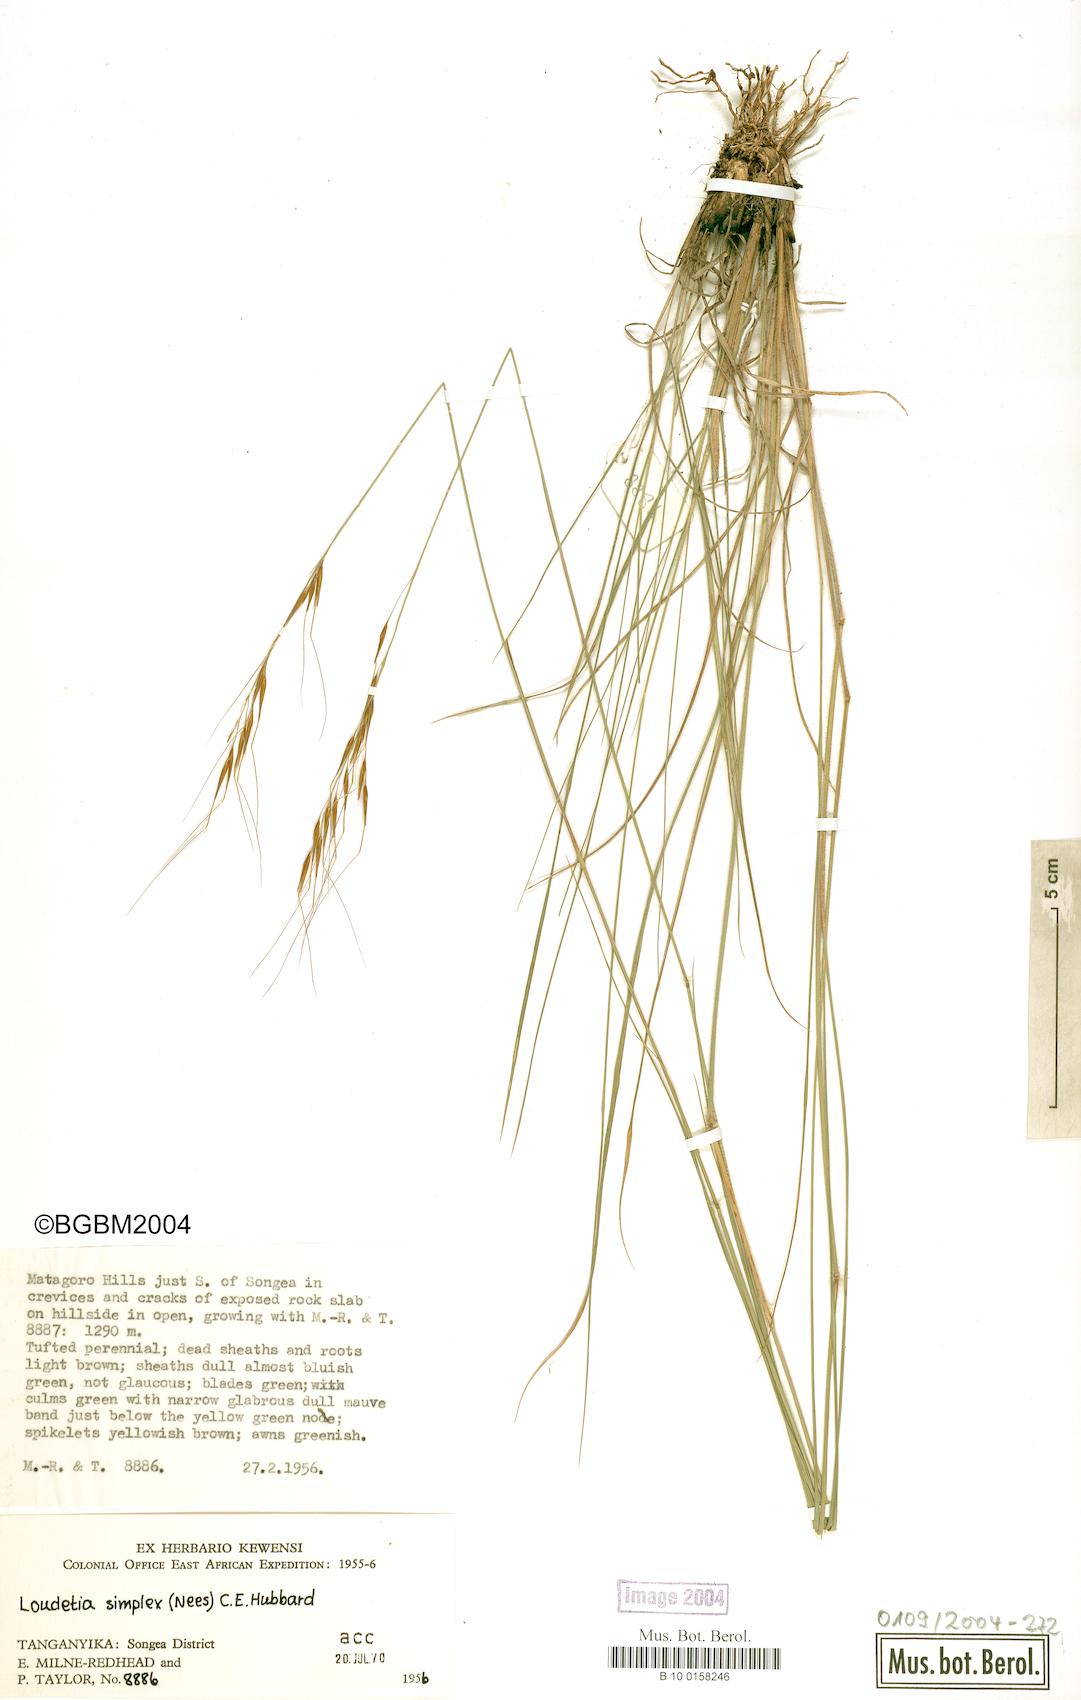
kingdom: Plantae
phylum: Tracheophyta
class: Liliopsida
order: Poales
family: Poaceae
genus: Loudetia
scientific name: Loudetia simplex
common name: Common russet grass
